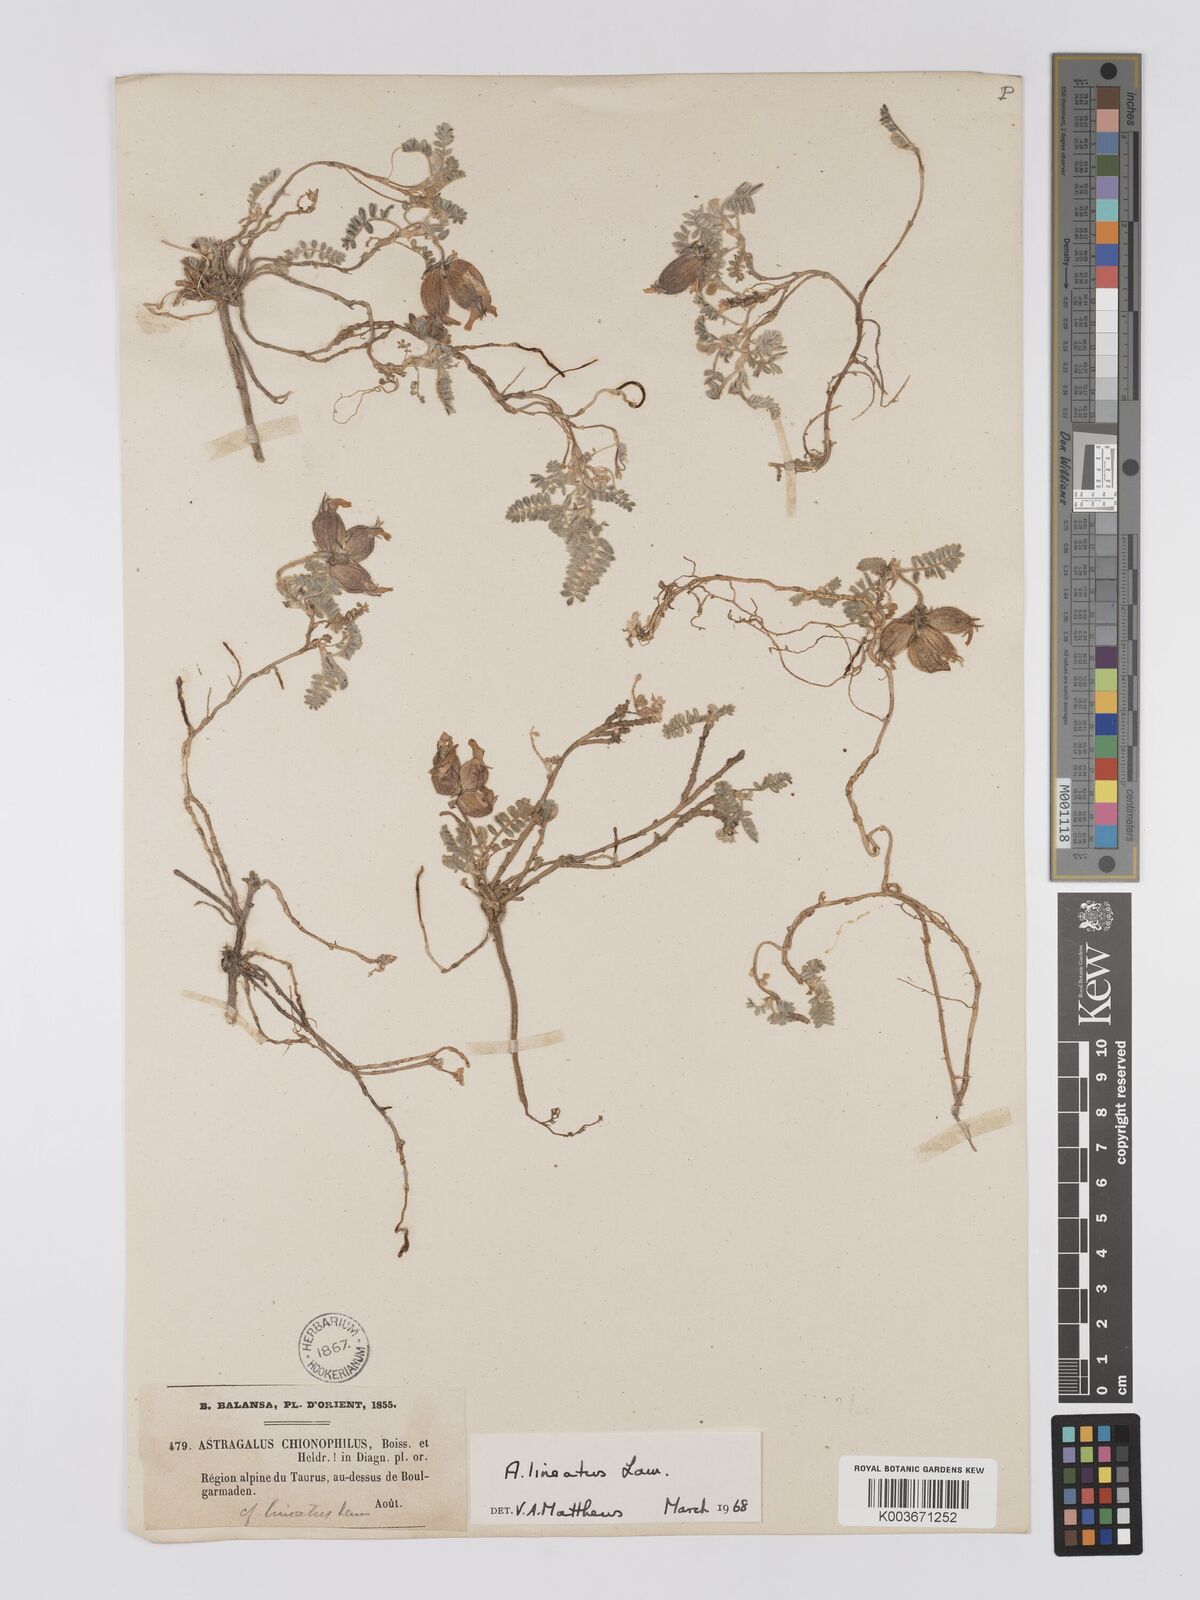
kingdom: Plantae
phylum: Tracheophyta
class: Magnoliopsida
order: Fabales
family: Fabaceae
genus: Astragalus
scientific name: Astragalus lineatus
